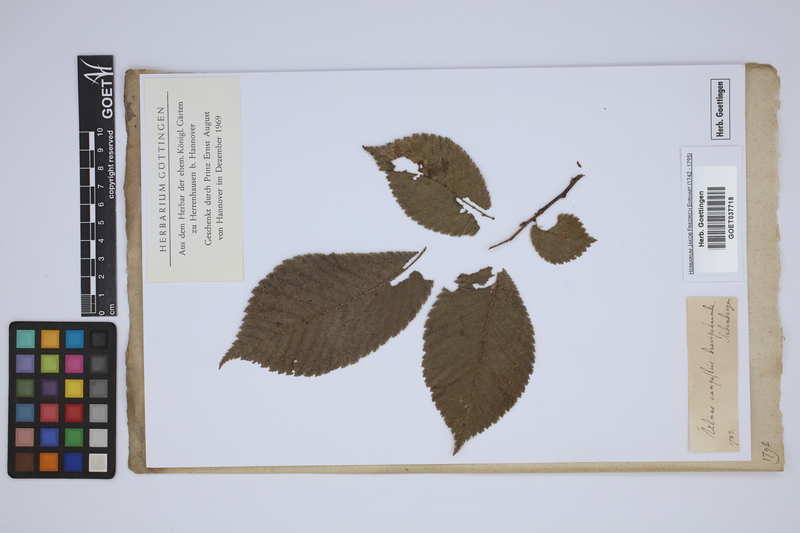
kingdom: Plantae
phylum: Tracheophyta
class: Magnoliopsida
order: Rosales
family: Ulmaceae
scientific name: Ulmaceae
